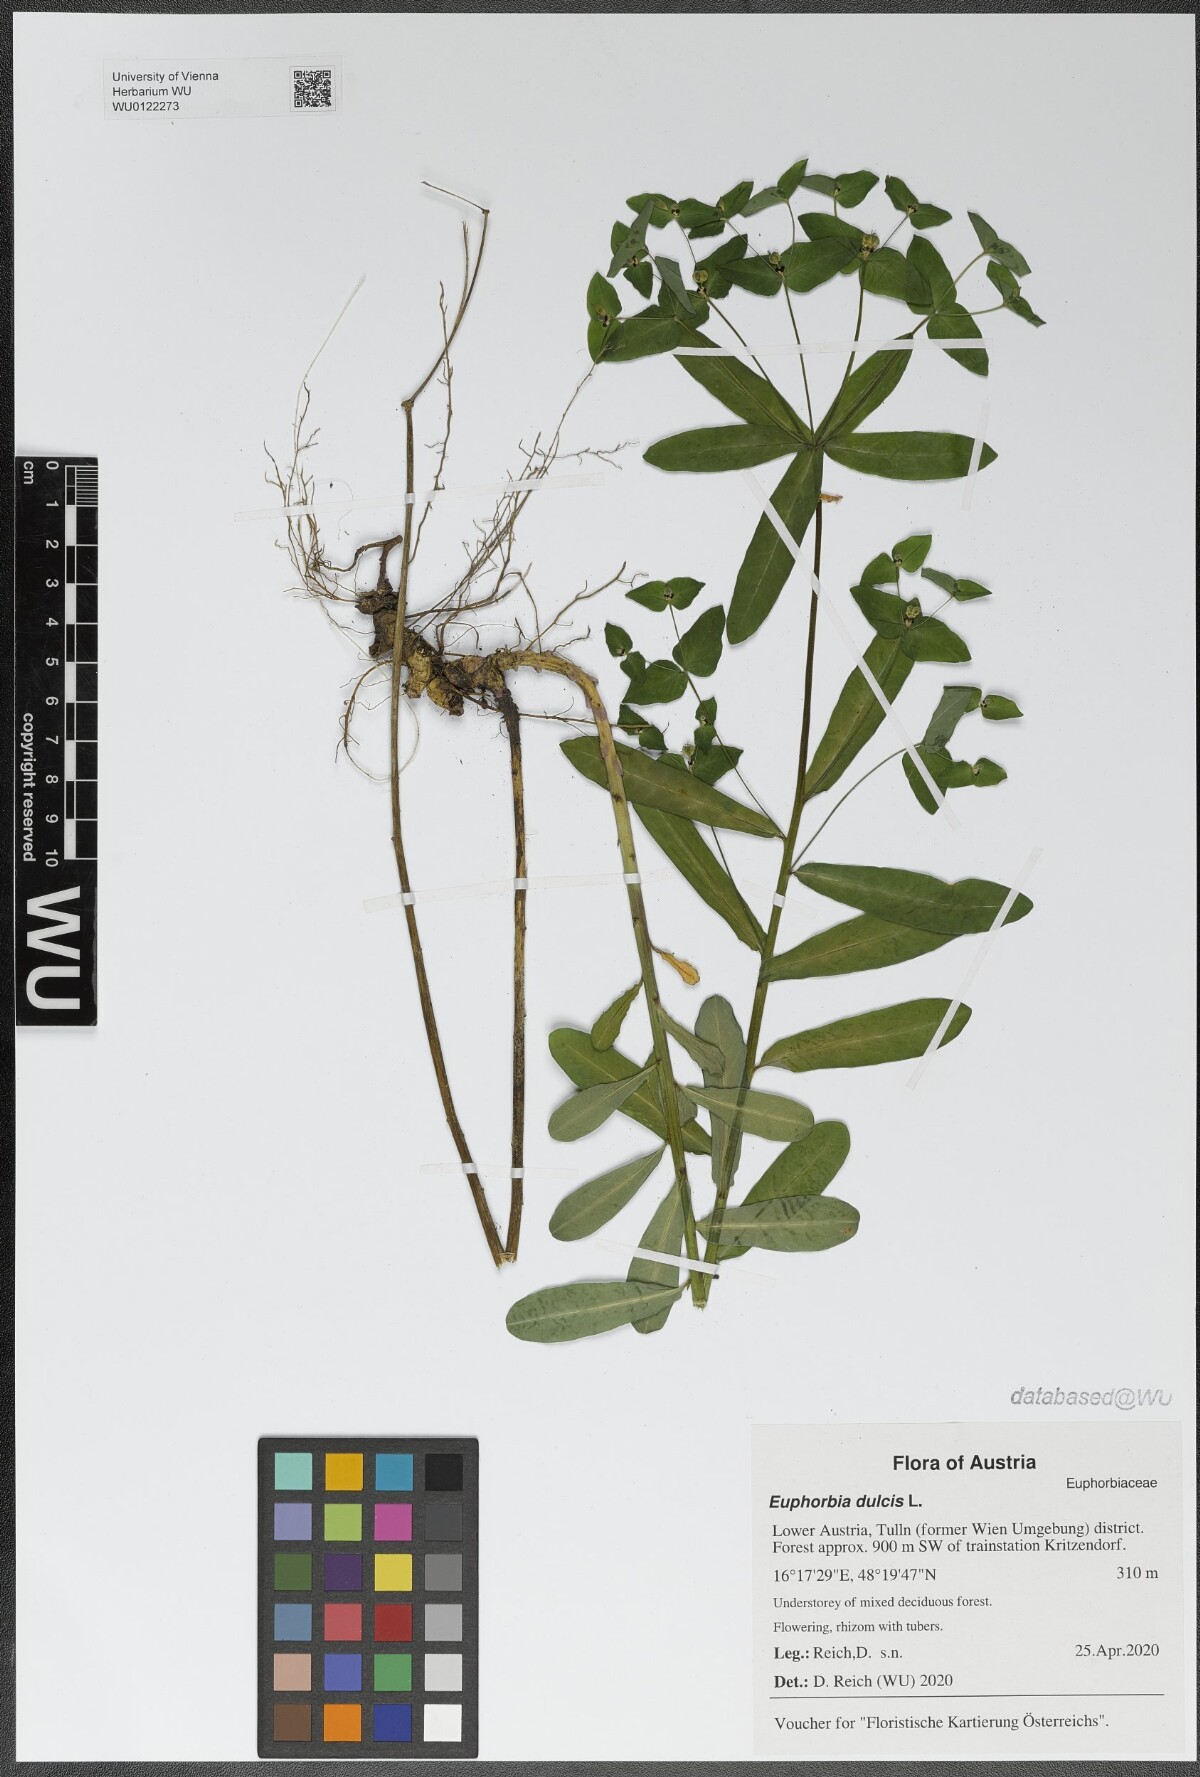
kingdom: Plantae
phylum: Tracheophyta
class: Magnoliopsida
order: Malpighiales
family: Euphorbiaceae
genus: Euphorbia
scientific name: Euphorbia dulcis
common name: Sweet spurge
